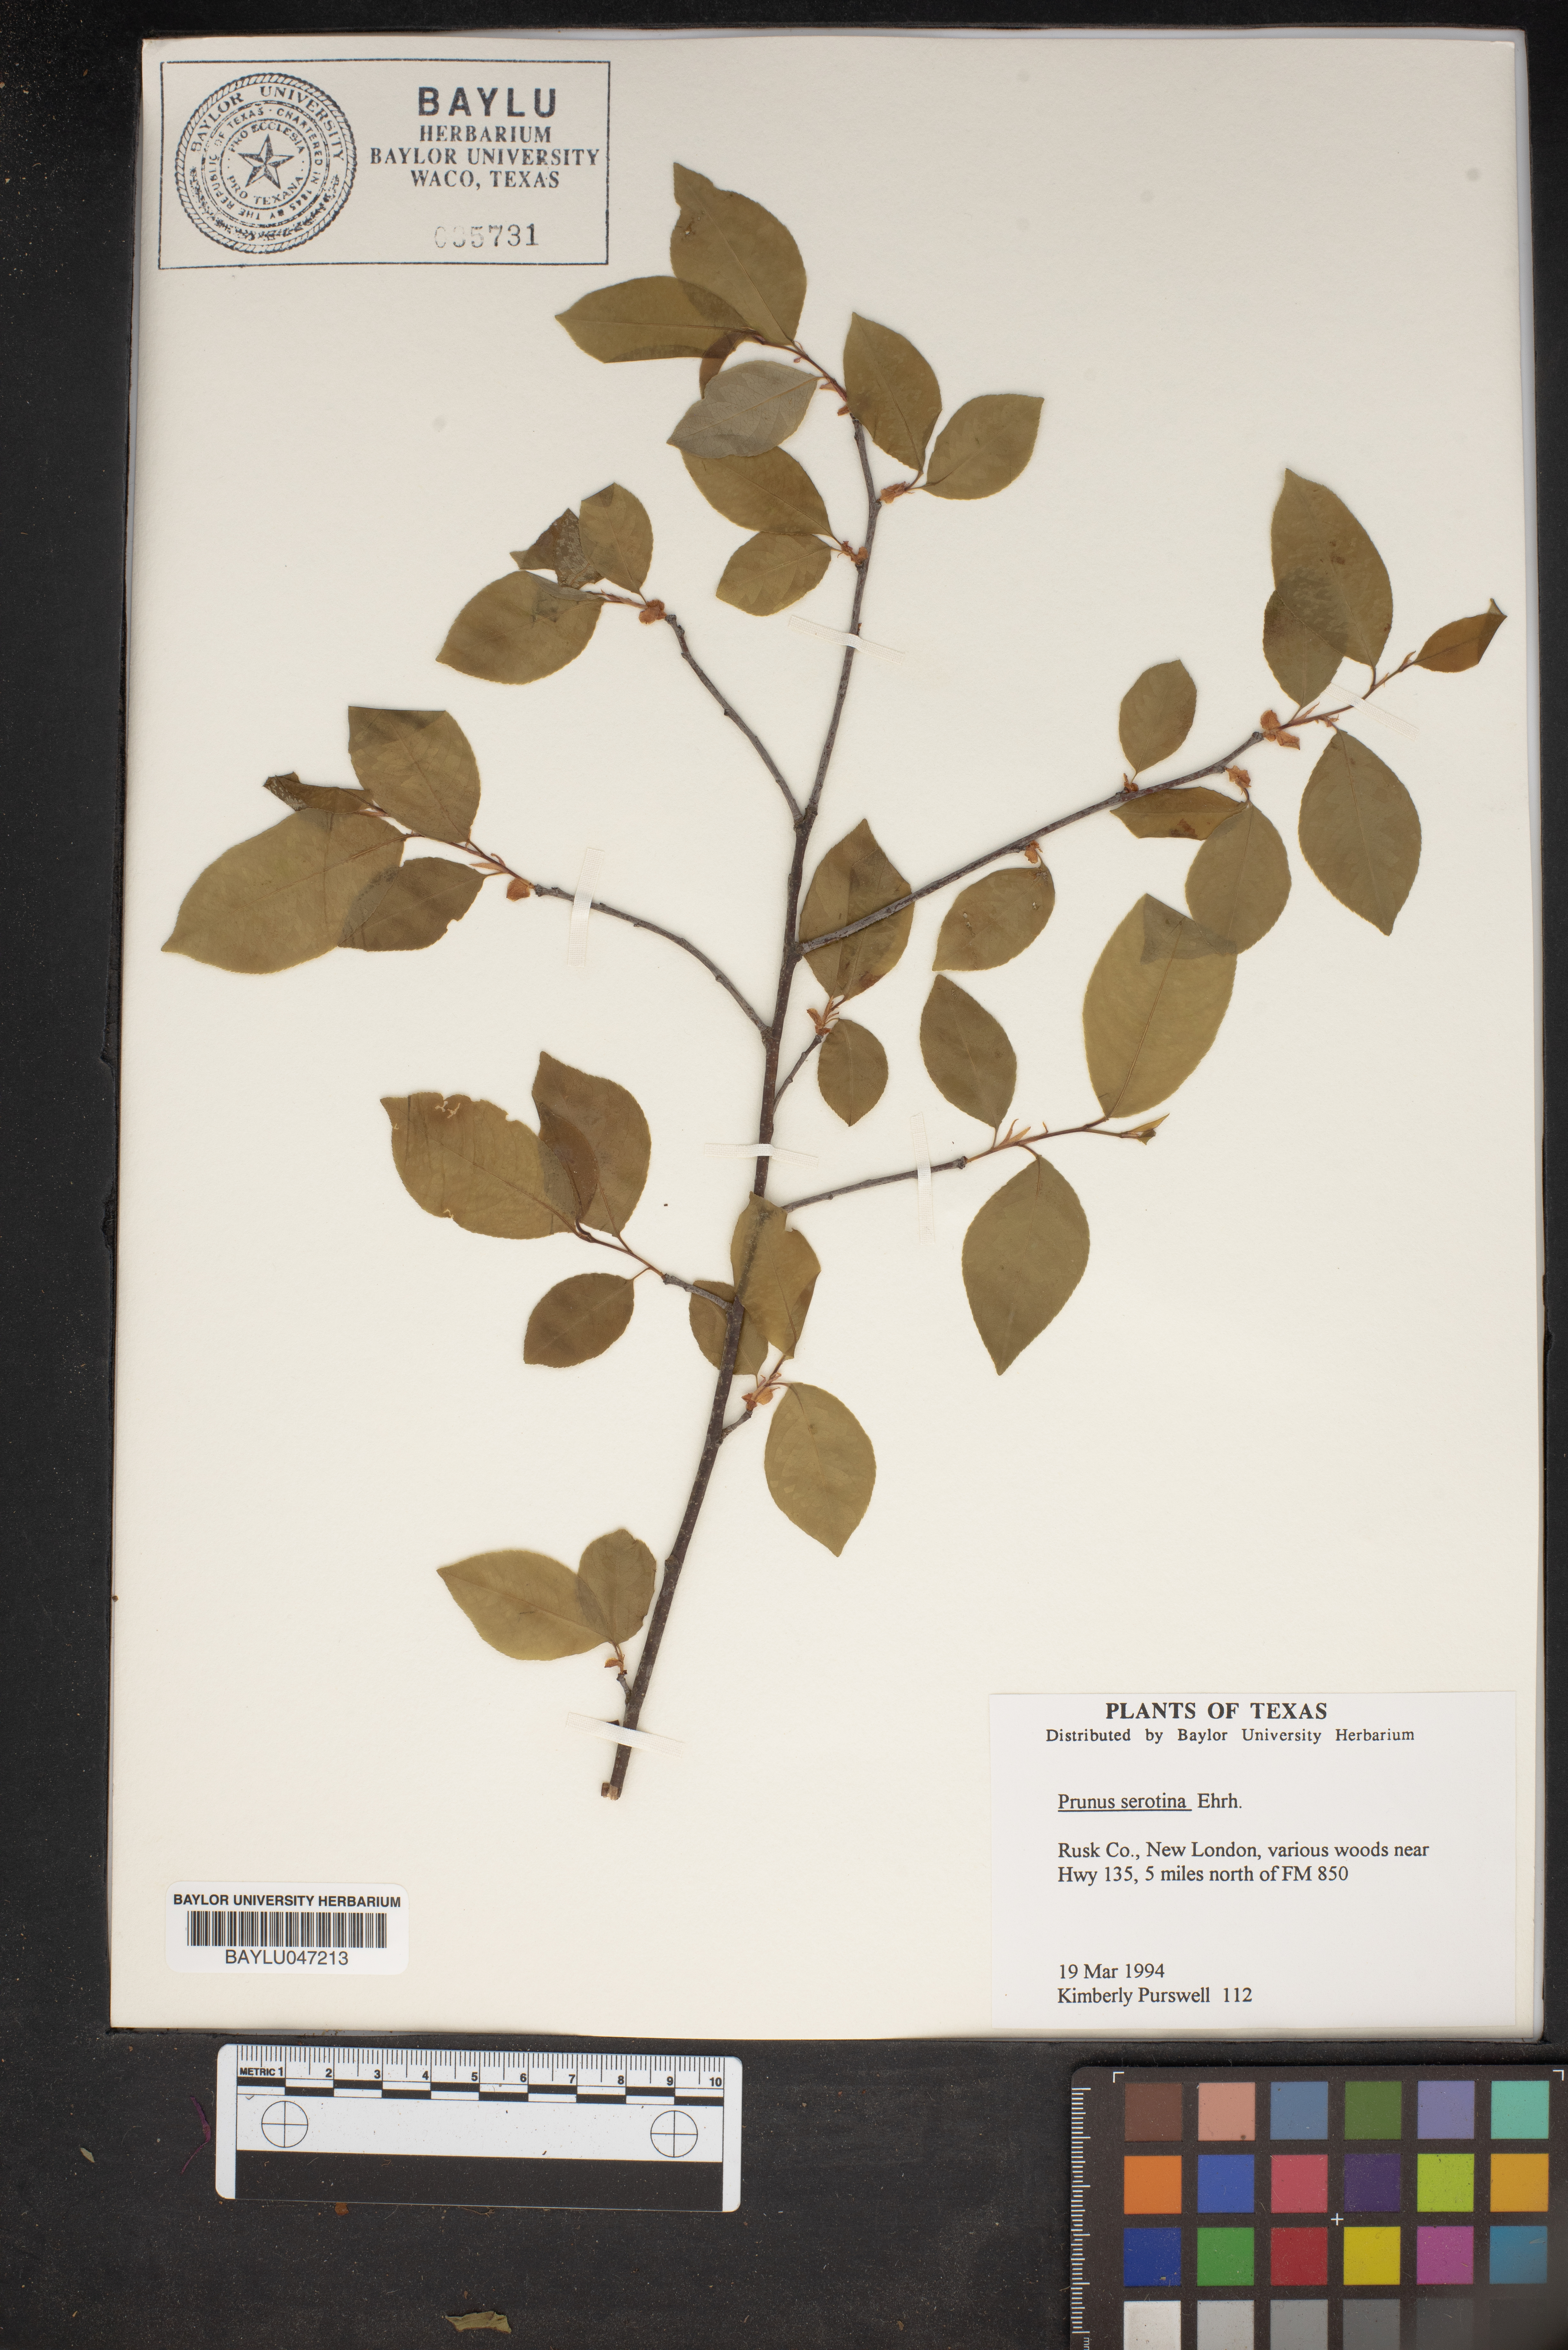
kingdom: Plantae
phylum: Tracheophyta
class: Magnoliopsida
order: Rosales
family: Rosaceae
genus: Prunus
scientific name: Prunus serotina
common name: Black cherry
